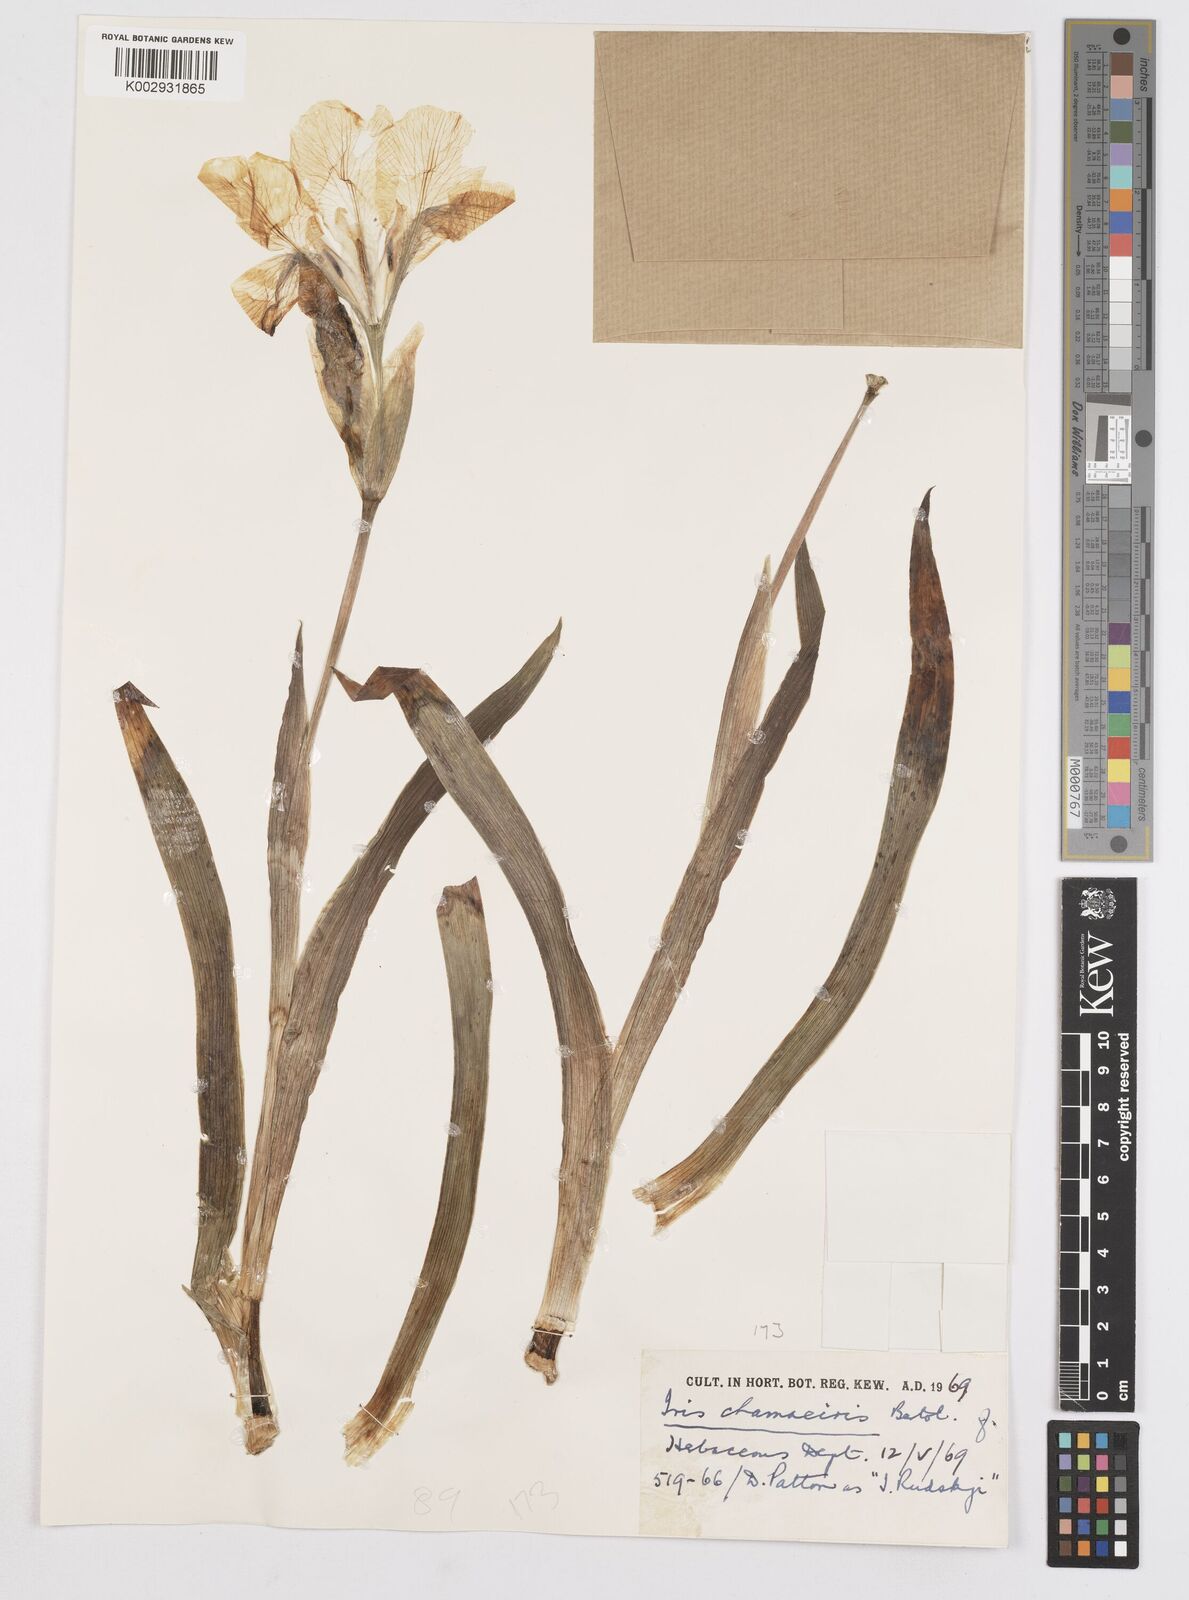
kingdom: Plantae
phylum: Tracheophyta
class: Liliopsida
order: Asparagales
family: Iridaceae
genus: Iris
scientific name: Iris lutescens
